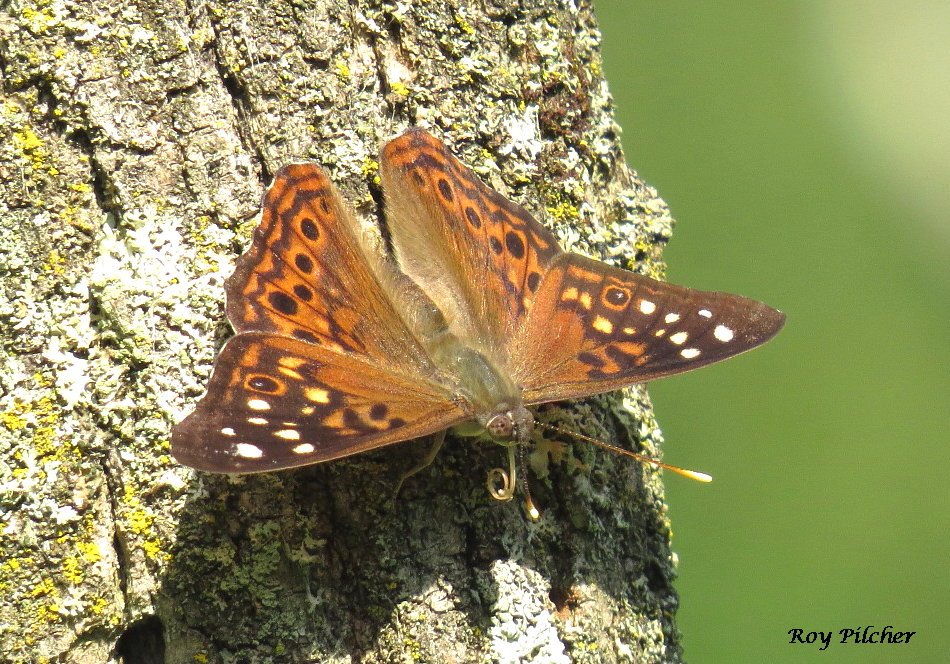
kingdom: Animalia
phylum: Arthropoda
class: Insecta
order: Lepidoptera
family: Nymphalidae
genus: Asterocampa
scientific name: Asterocampa celtis
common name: Hackberry Emperor
